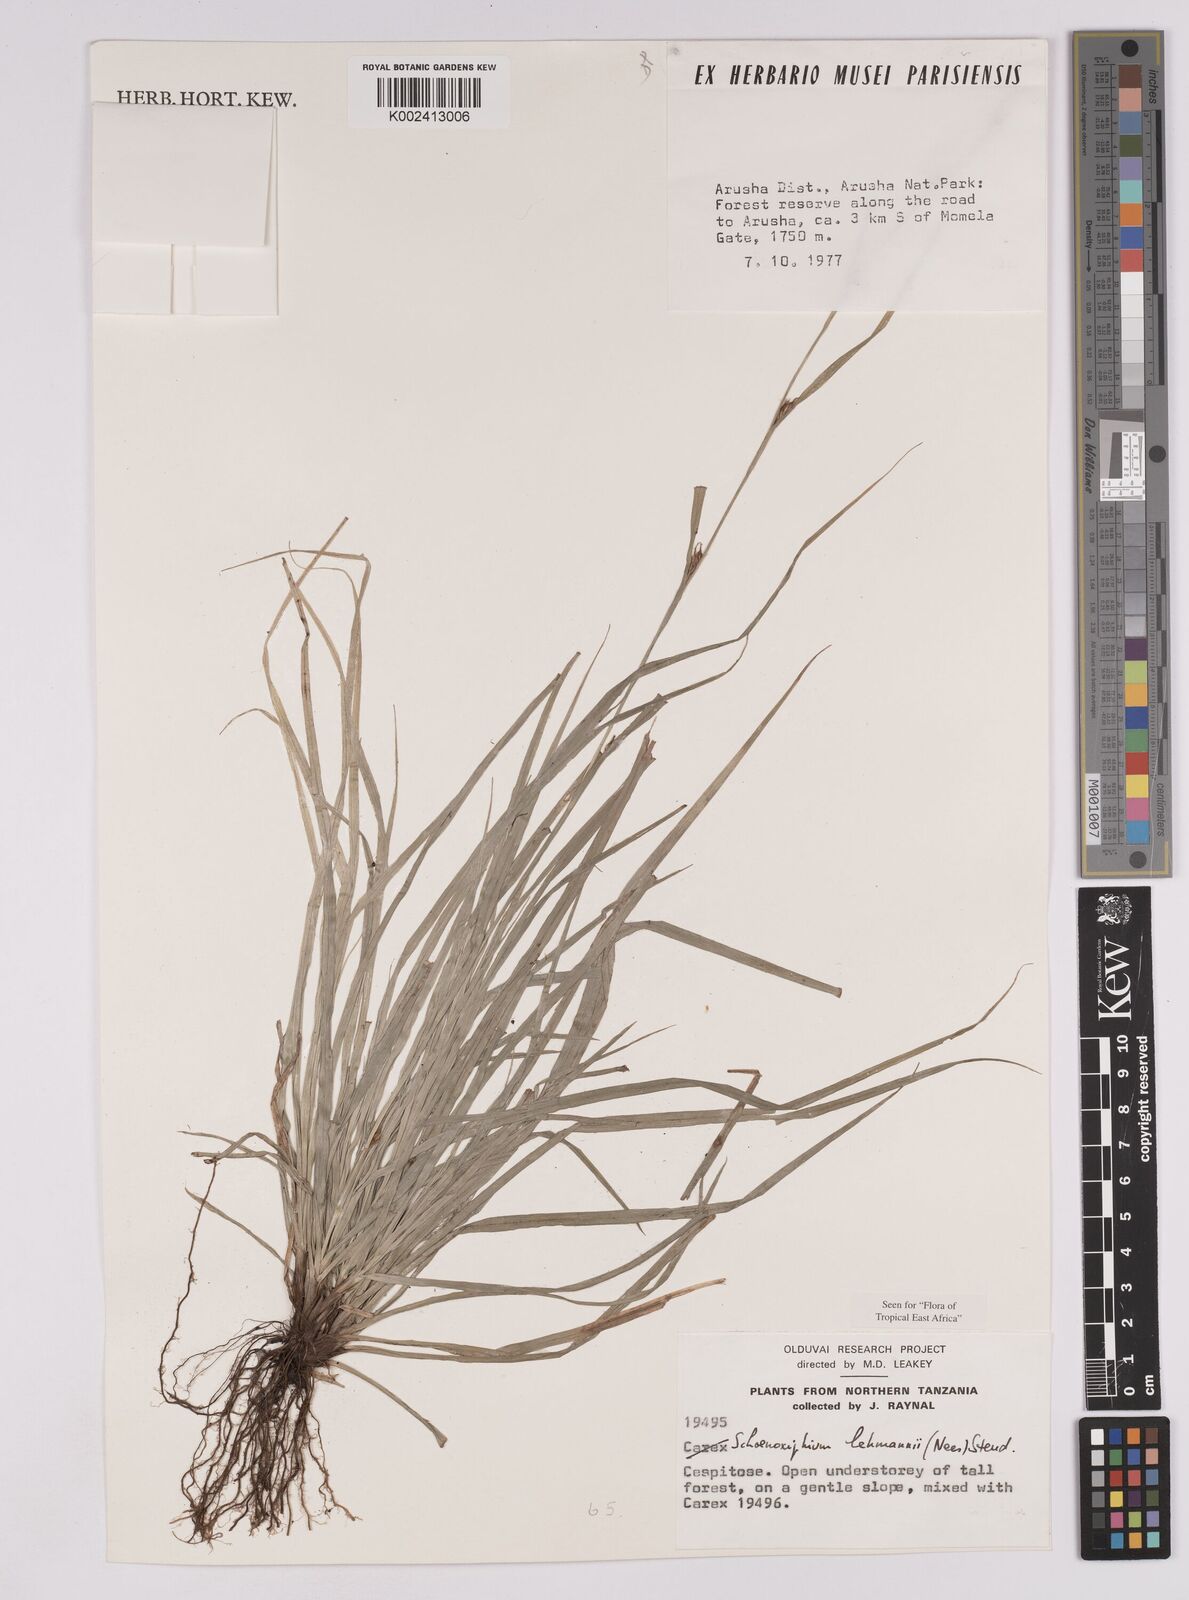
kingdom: Plantae
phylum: Tracheophyta
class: Liliopsida
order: Poales
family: Cyperaceae
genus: Carex
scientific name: Carex uhligii
